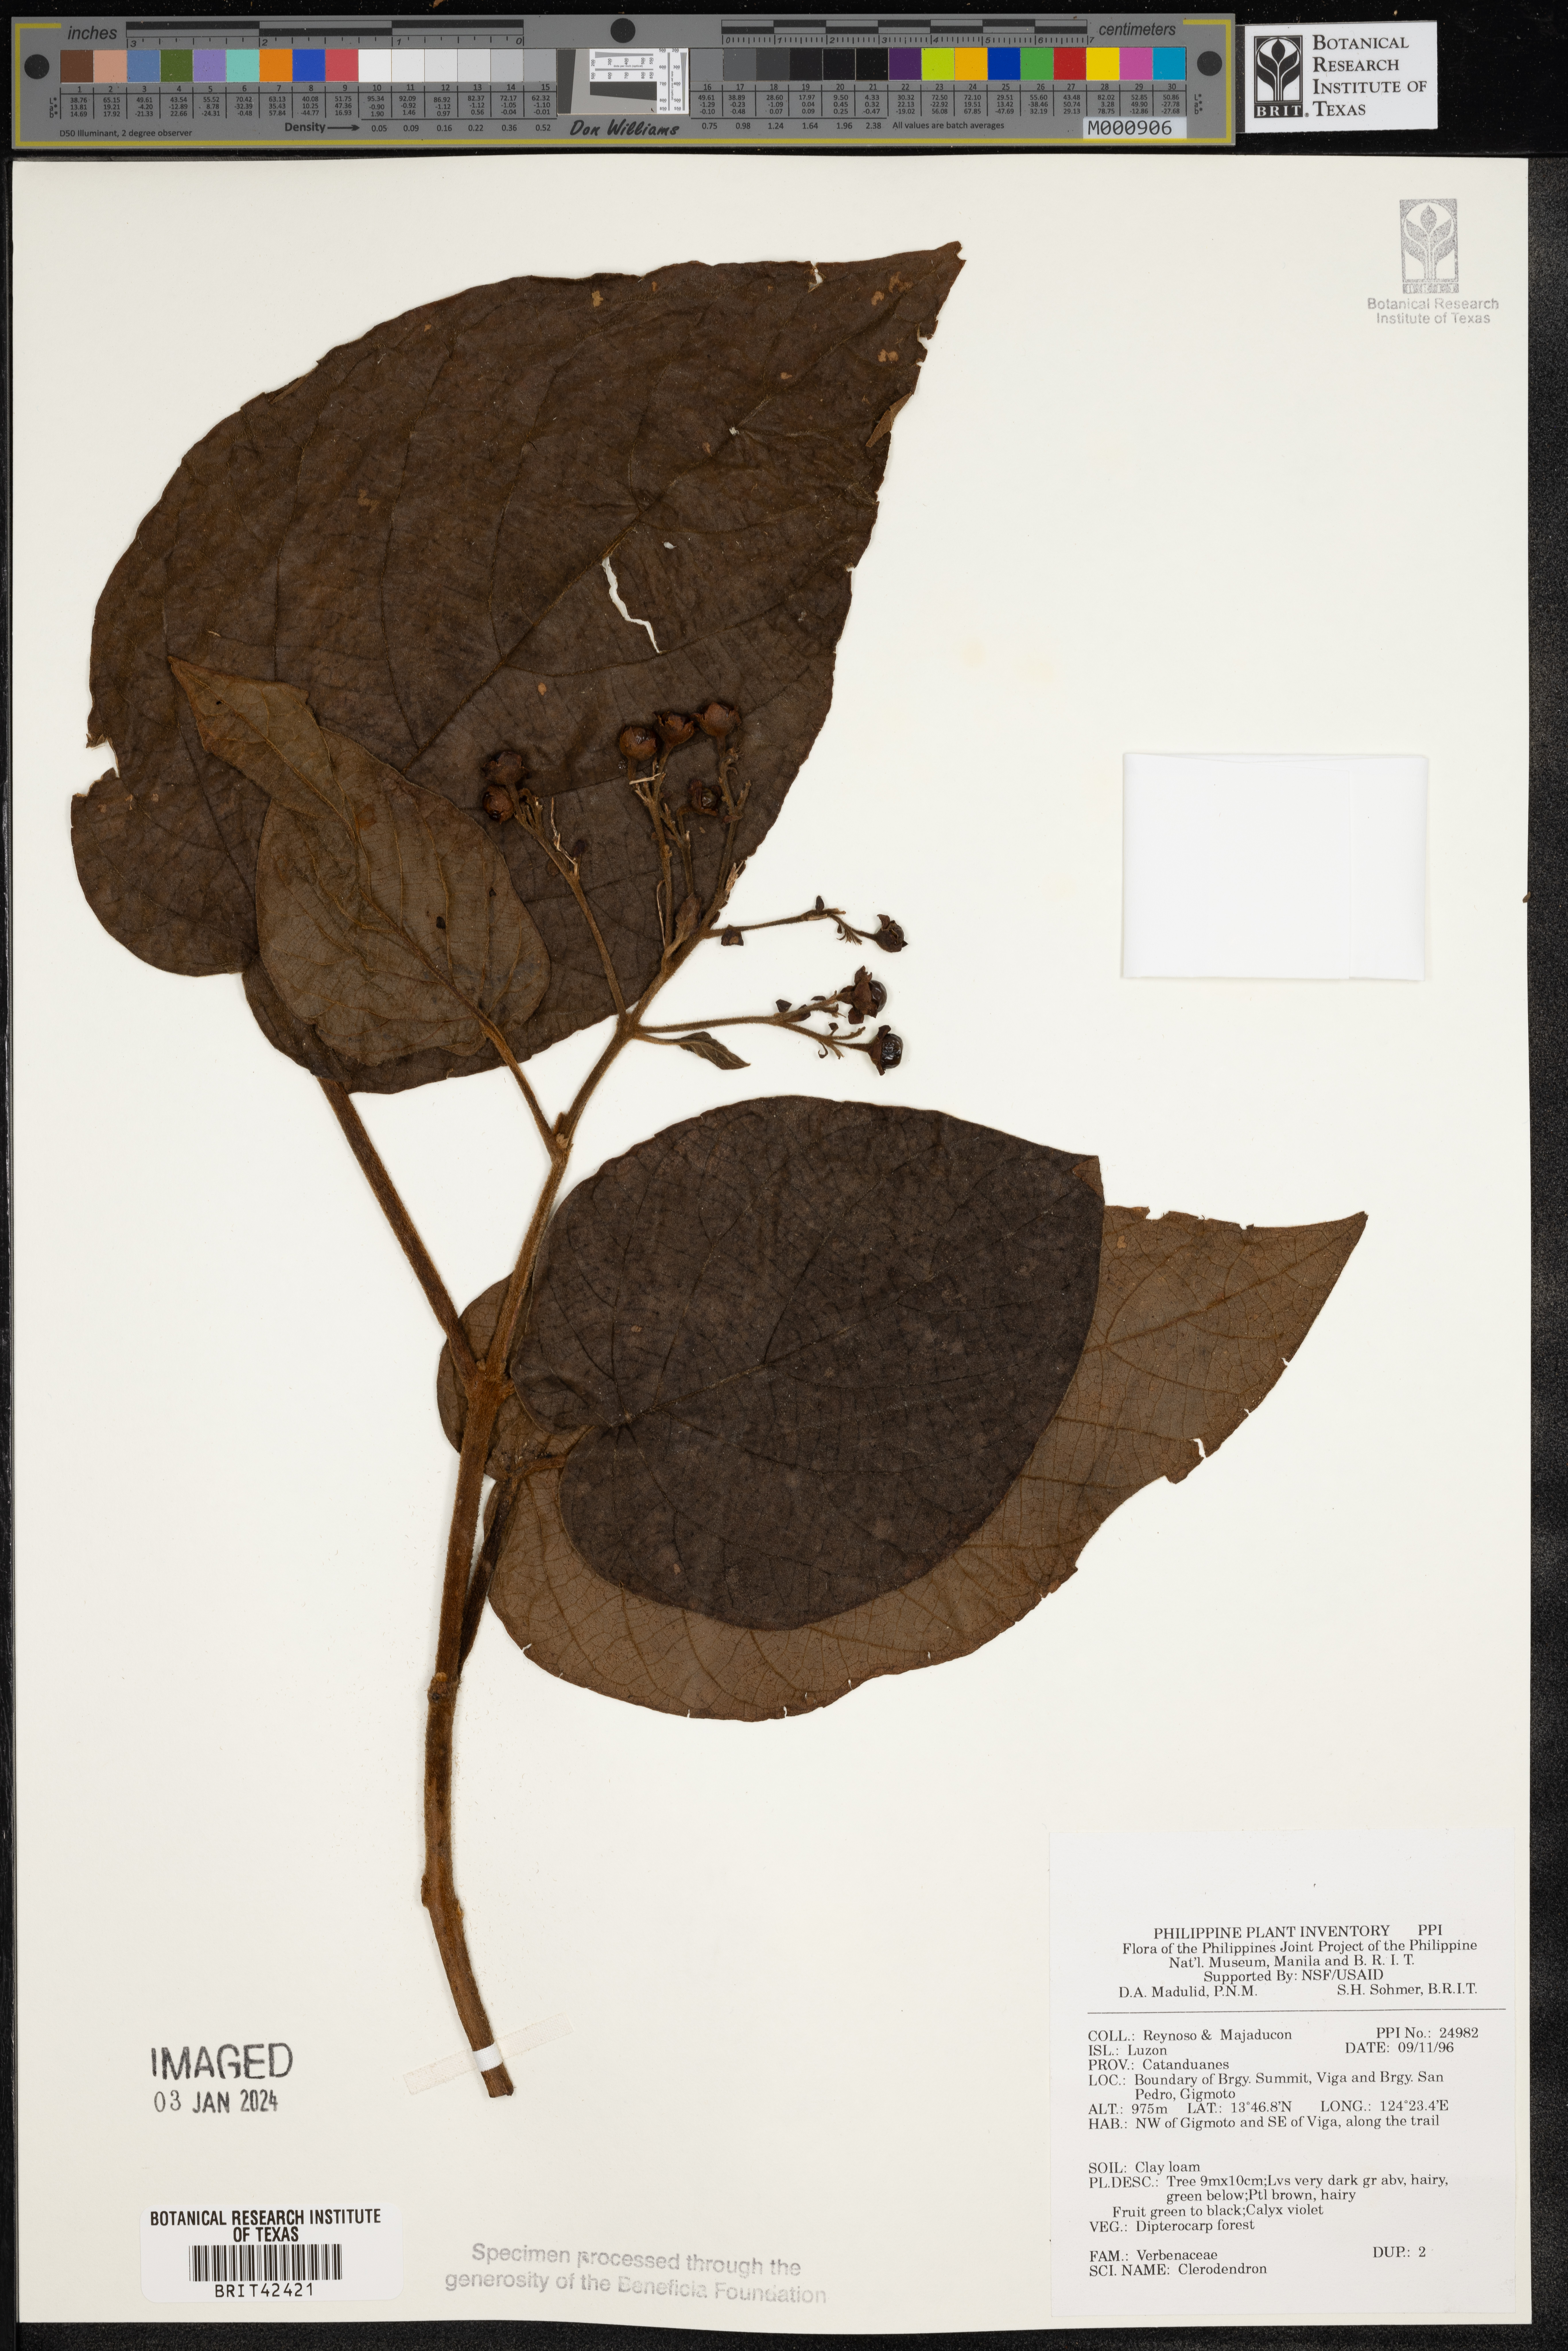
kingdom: Plantae
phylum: Tracheophyta
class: Magnoliopsida
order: Lamiales
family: Lamiaceae
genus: Clerodendrum
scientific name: Clerodendrum
